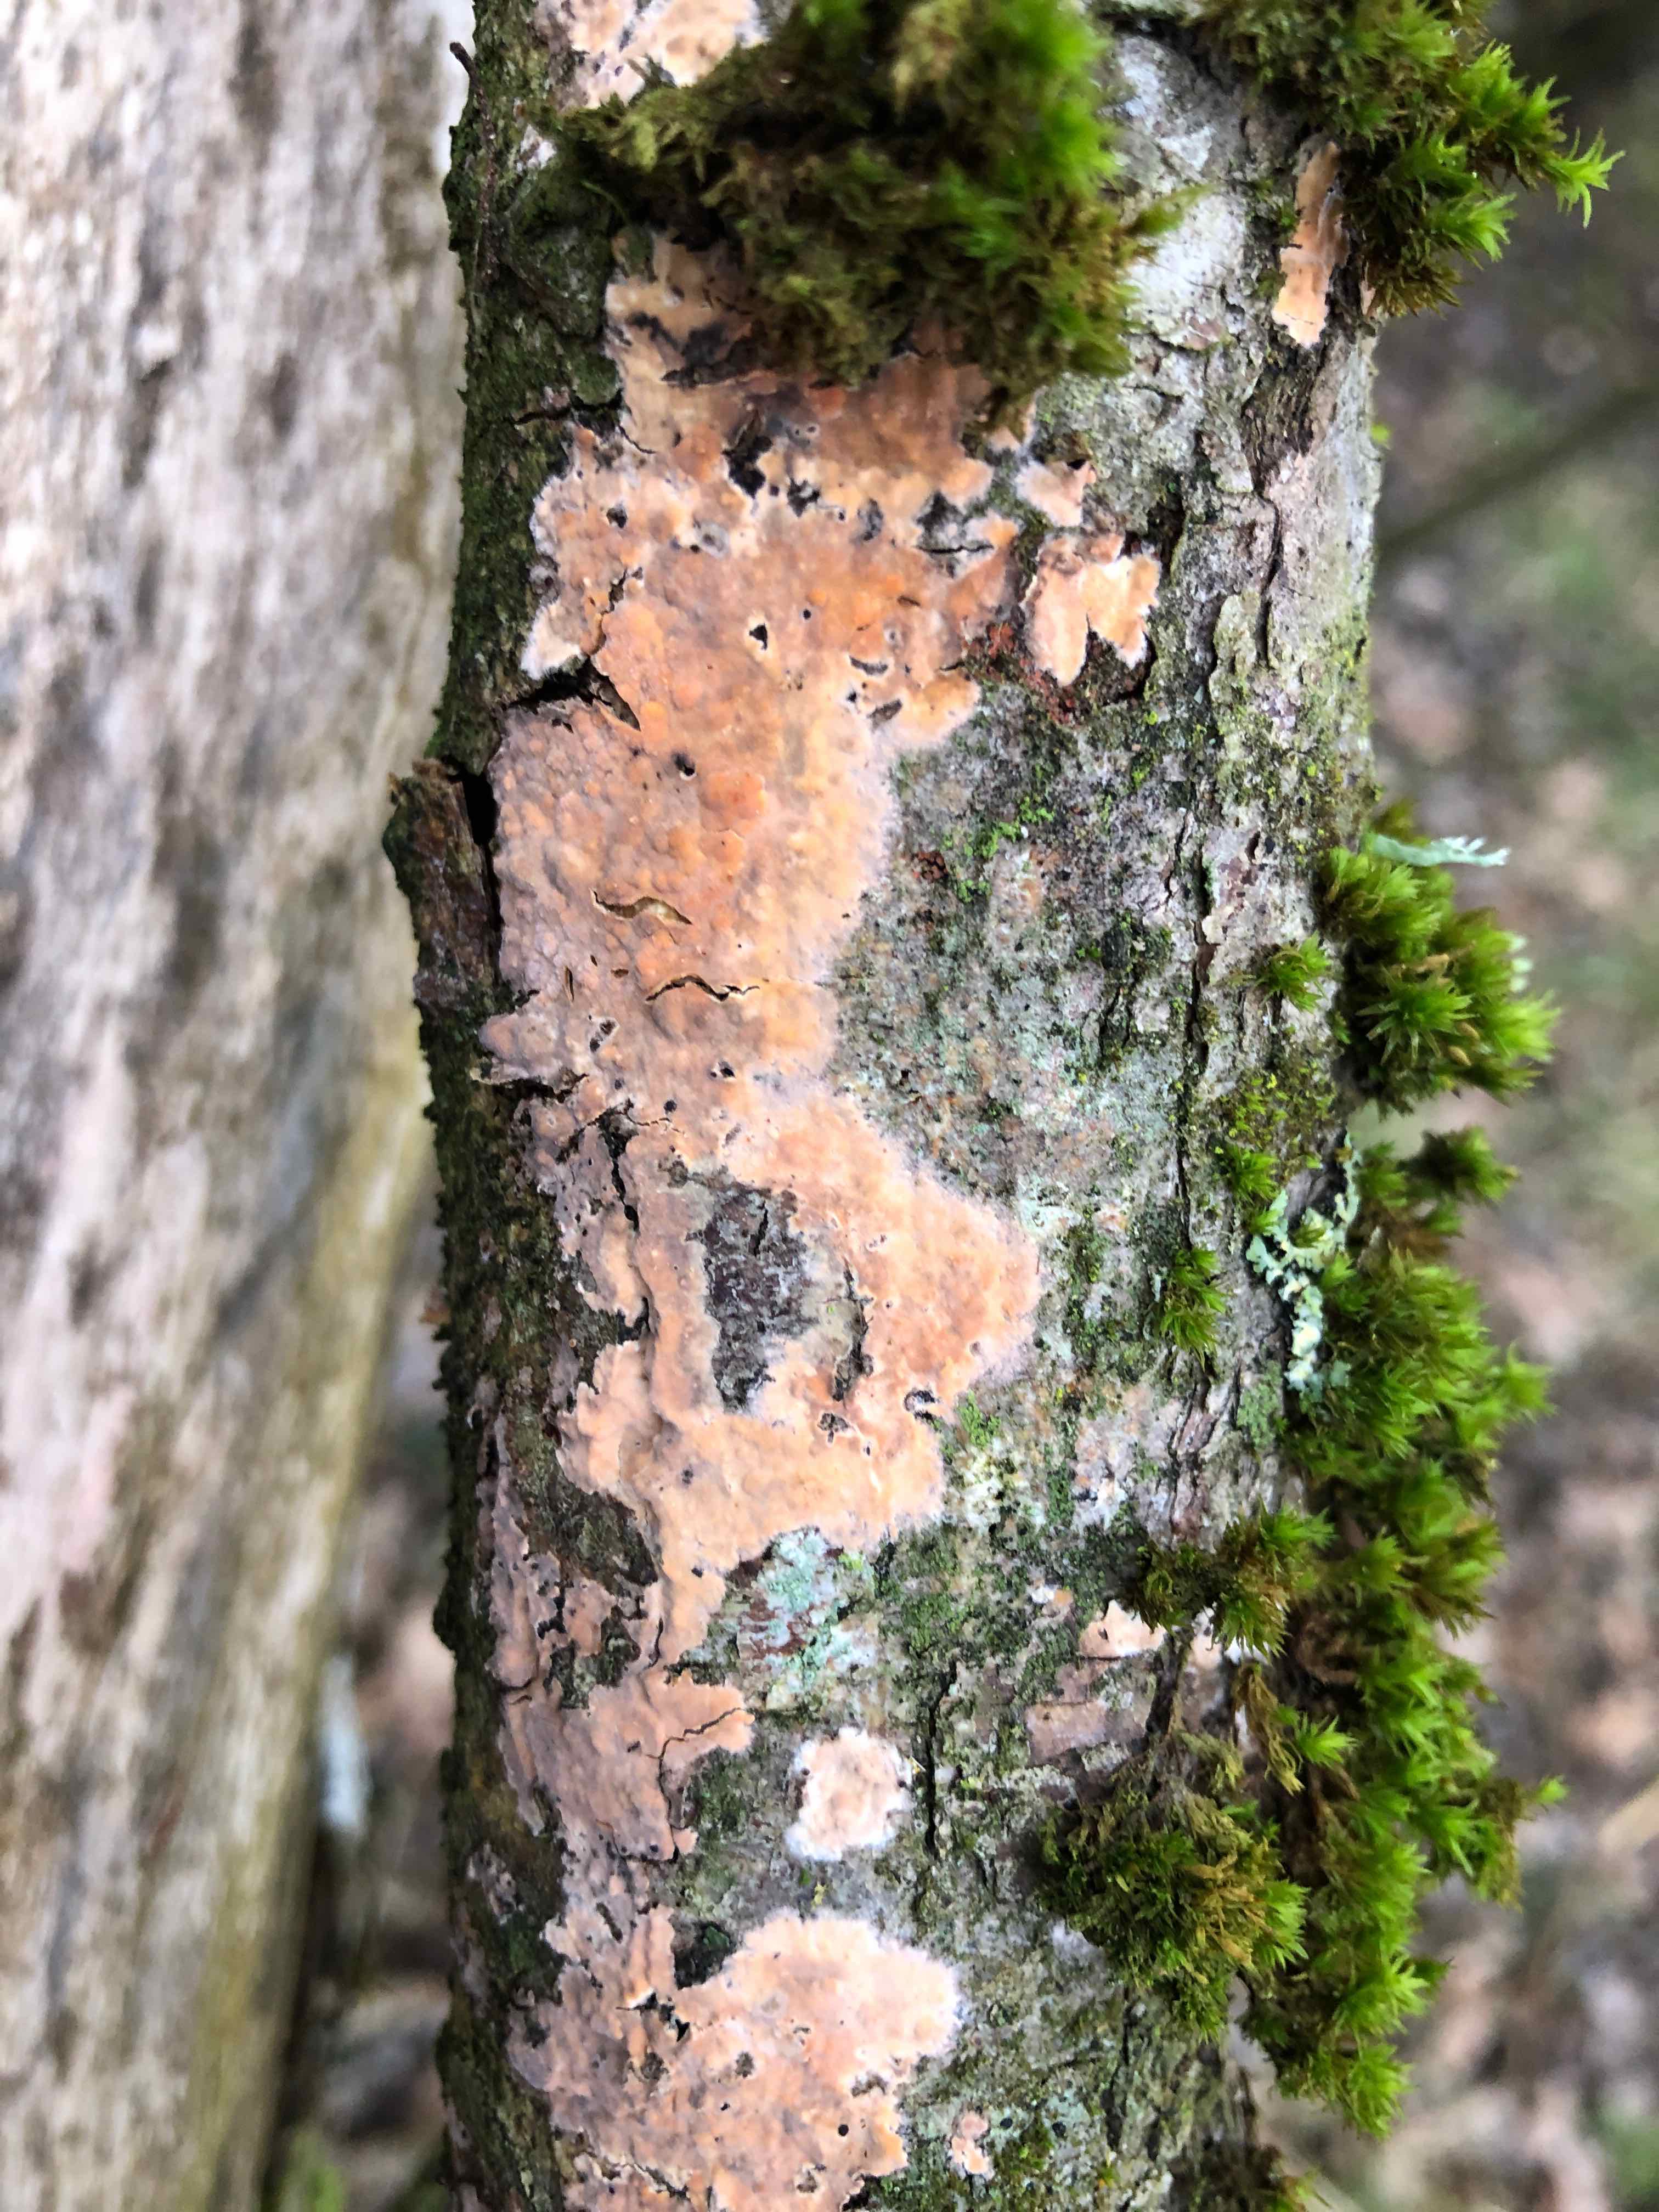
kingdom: Fungi
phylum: Basidiomycota
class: Agaricomycetes
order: Russulales
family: Peniophoraceae
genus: Peniophora
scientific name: Peniophora incarnata
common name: laksefarvet voksskind
